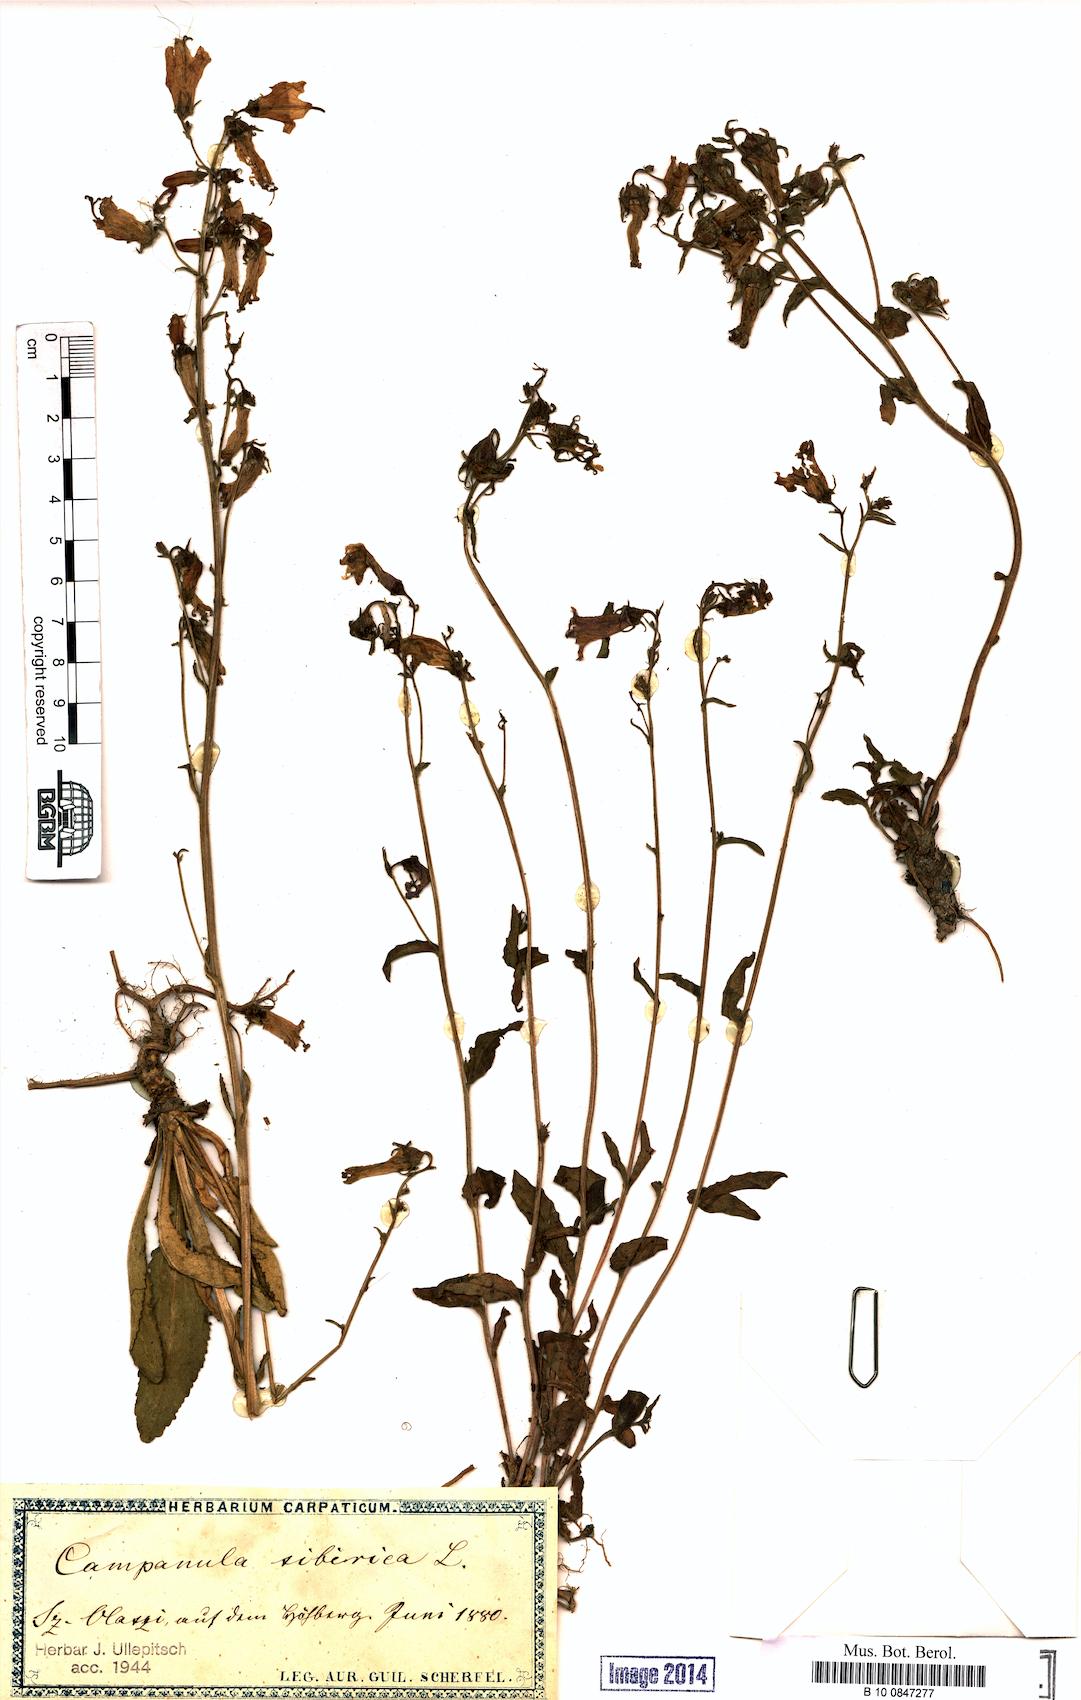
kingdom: Plantae
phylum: Tracheophyta
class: Magnoliopsida
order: Asterales
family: Campanulaceae
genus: Campanula
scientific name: Campanula sibirica
